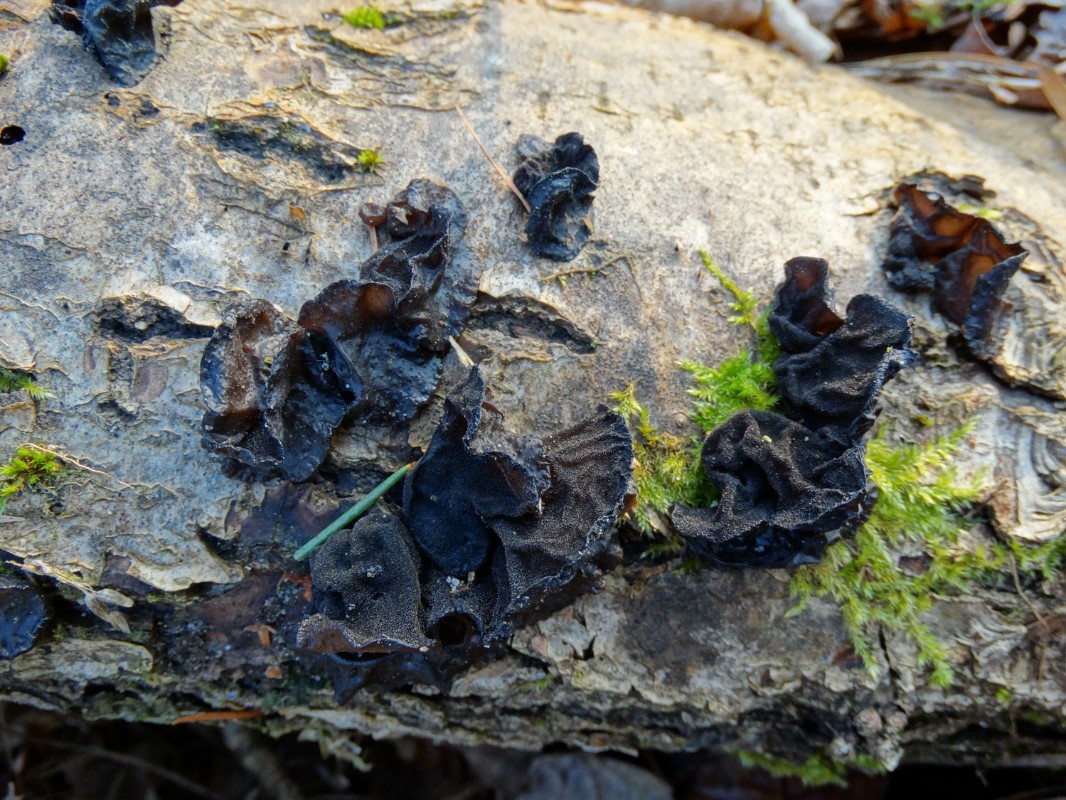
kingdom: Fungi
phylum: Basidiomycota
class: Agaricomycetes
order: Auriculariales
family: Auriculariaceae
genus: Exidia
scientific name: Exidia glandulosa
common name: ege-bævretop
